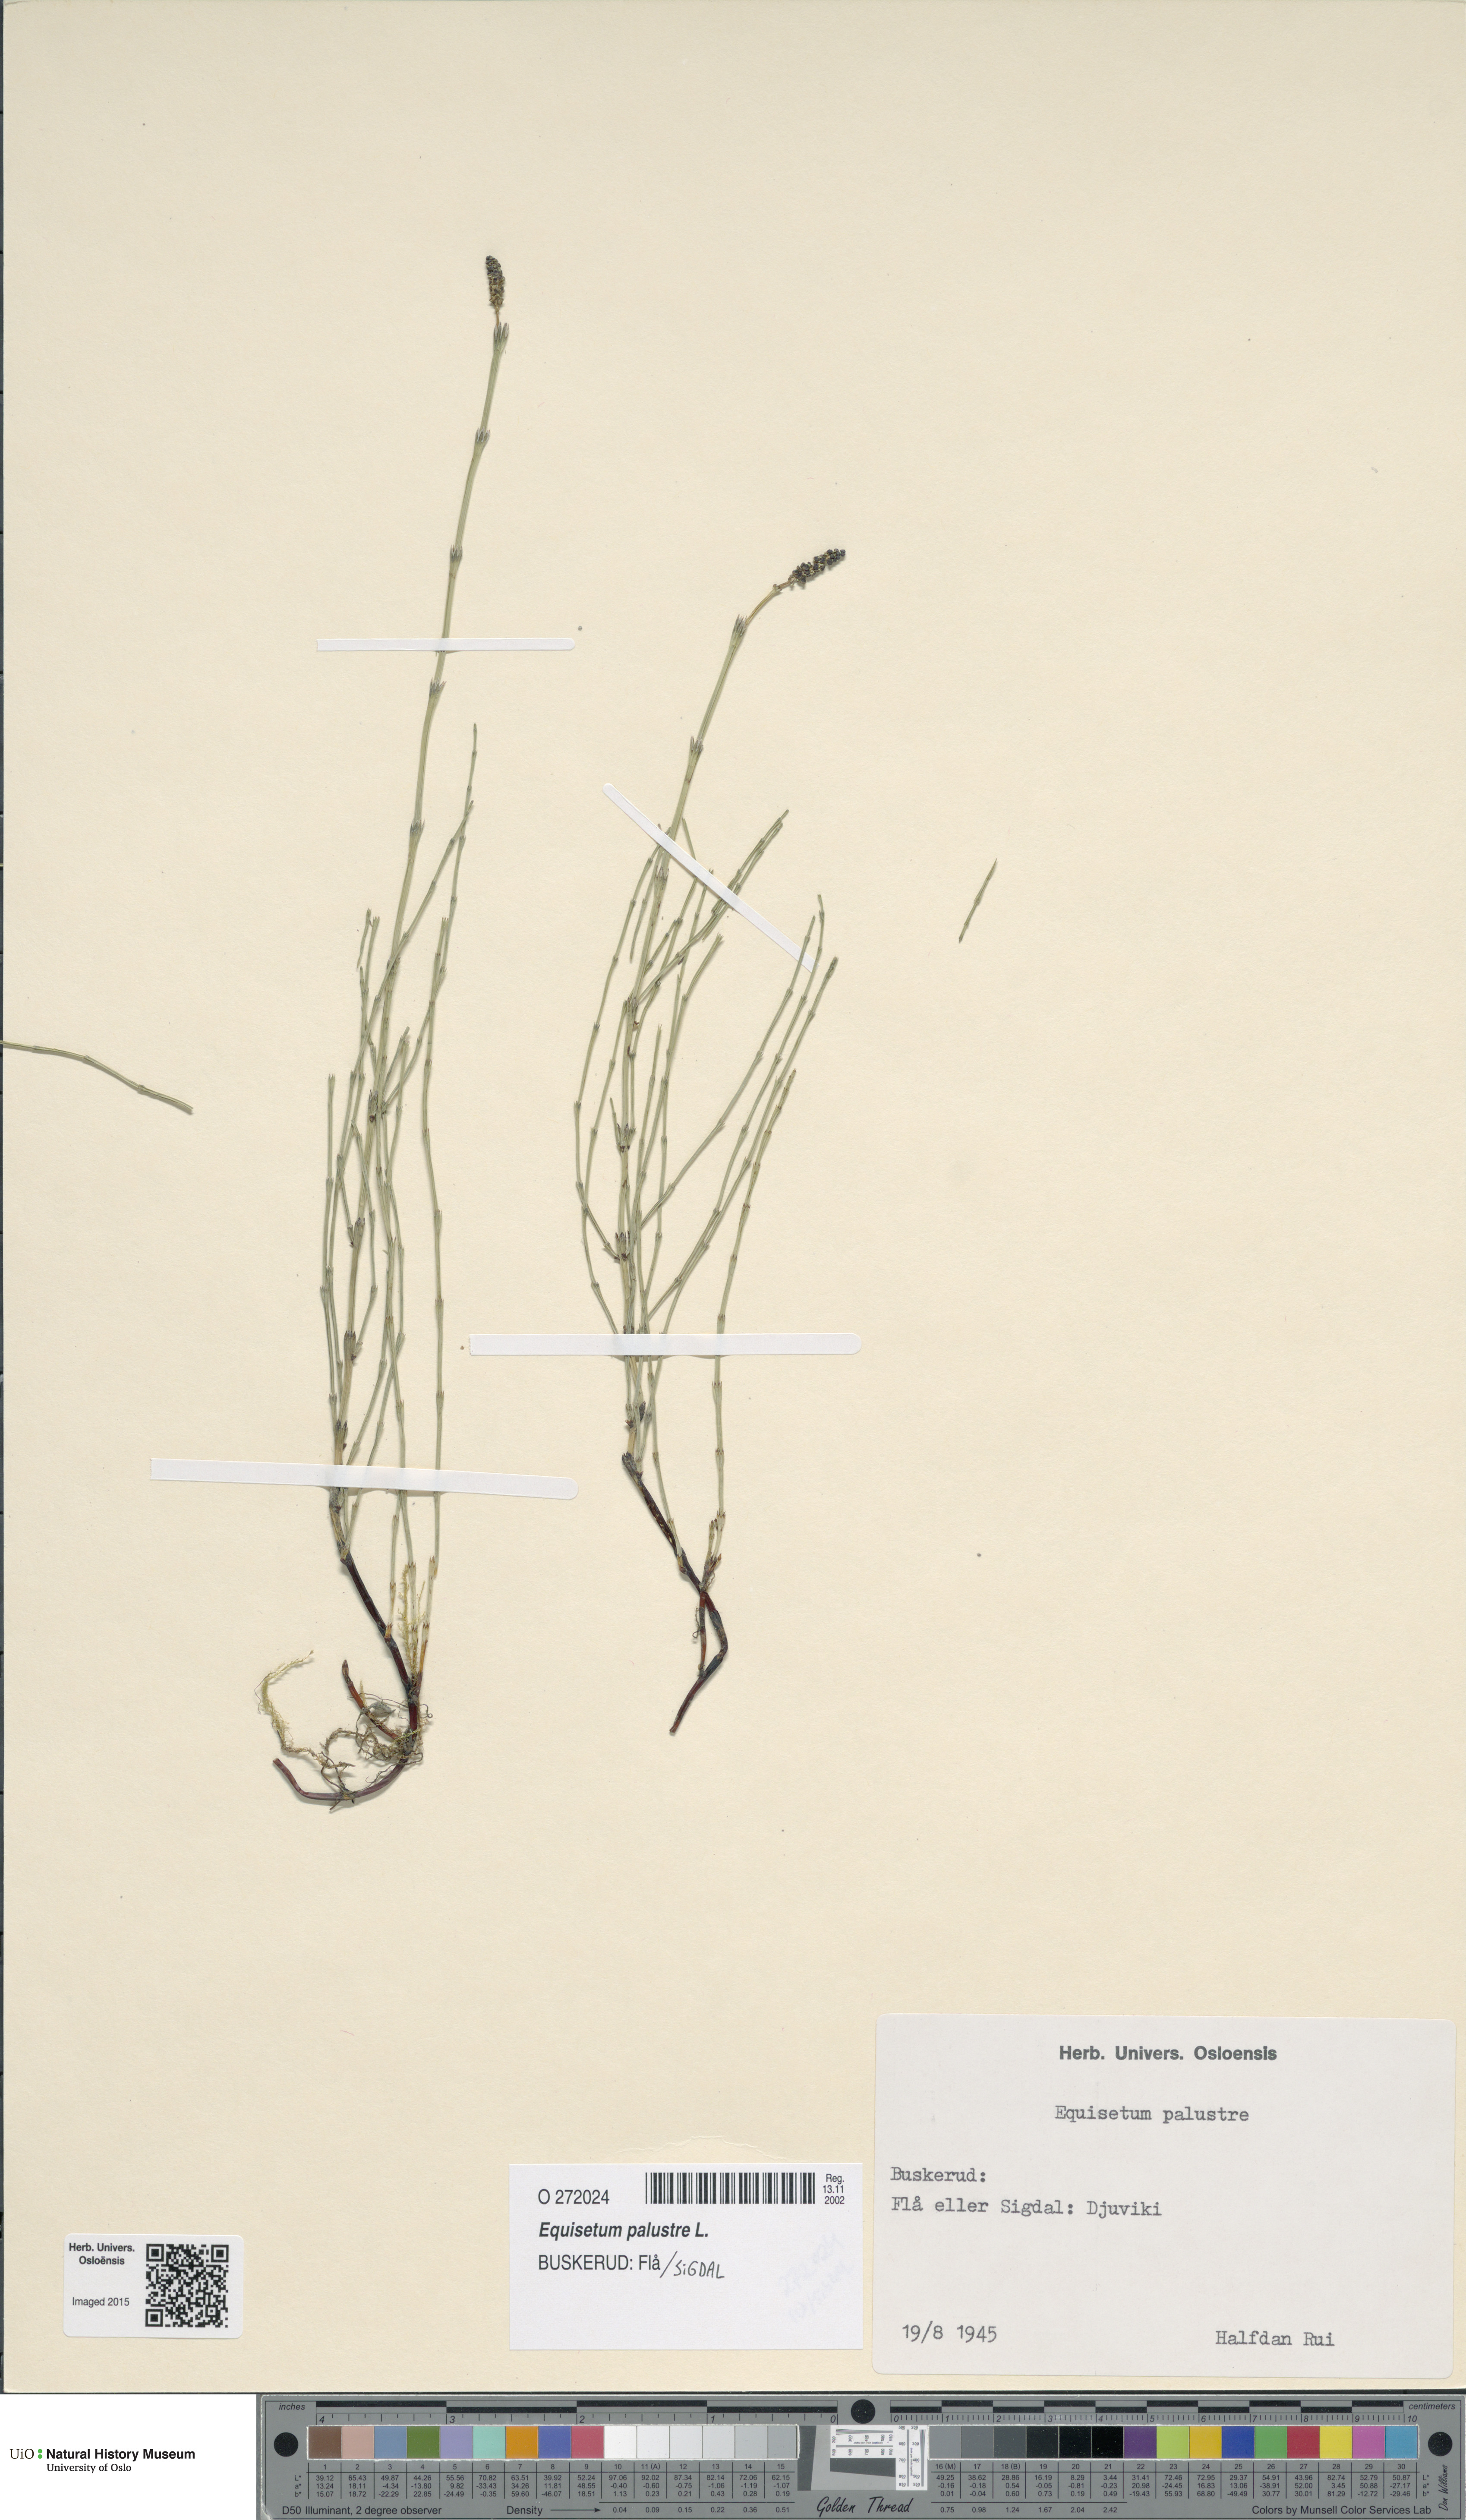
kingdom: Plantae
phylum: Tracheophyta
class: Polypodiopsida
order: Equisetales
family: Equisetaceae
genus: Equisetum
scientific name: Equisetum palustre
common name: Marsh horsetail
